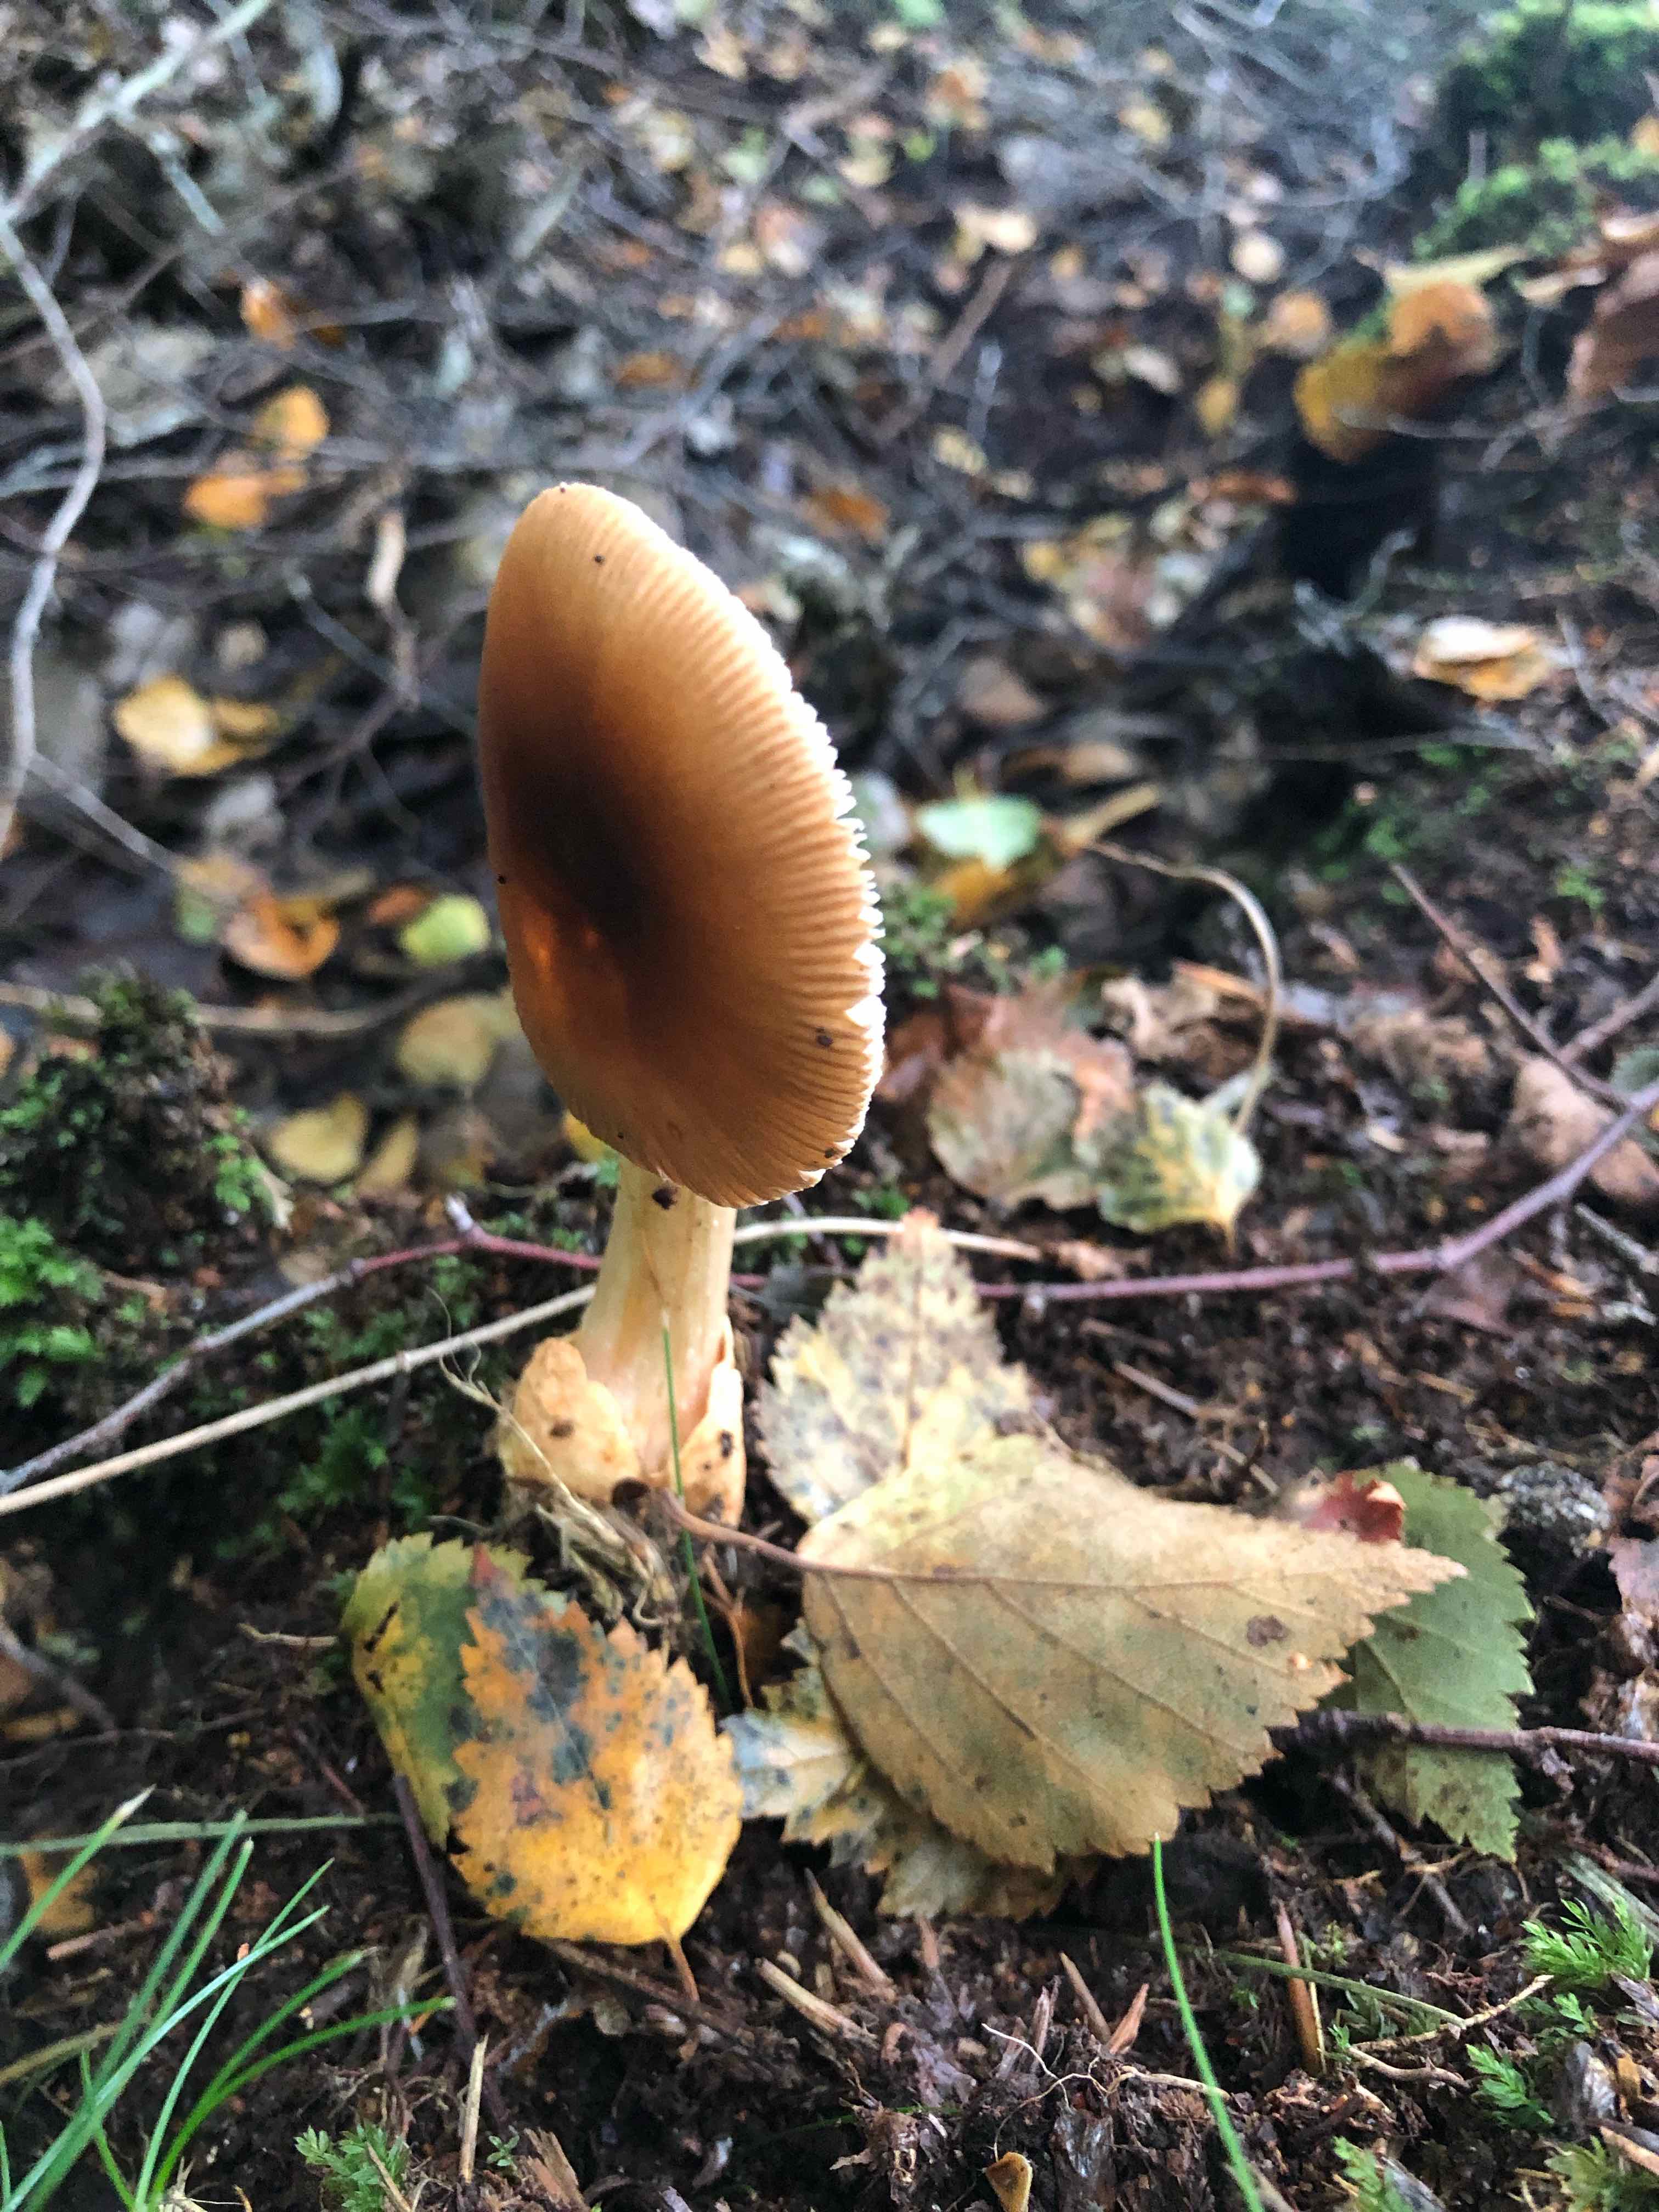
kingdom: Fungi
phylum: Basidiomycota
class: Agaricomycetes
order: Agaricales
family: Amanitaceae
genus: Amanita
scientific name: Amanita fulva
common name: brun kam-fluesvamp
